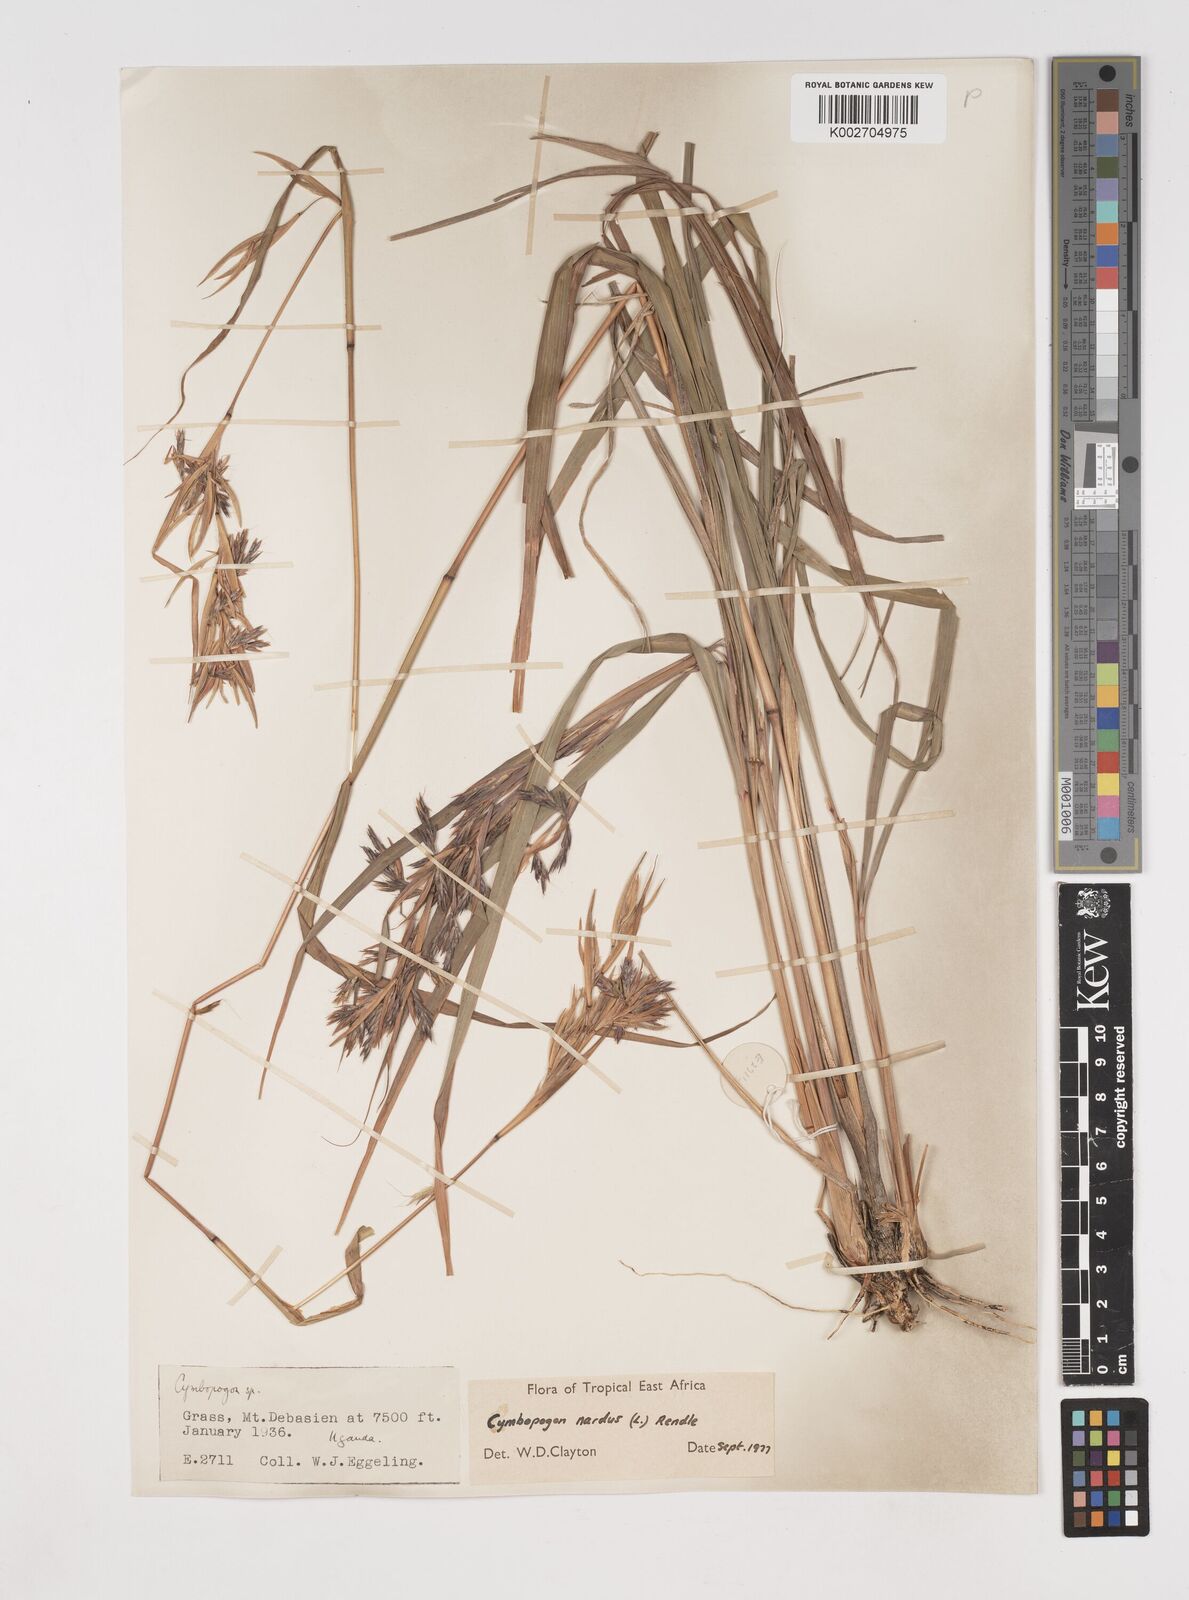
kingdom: Plantae
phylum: Tracheophyta
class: Liliopsida
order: Poales
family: Poaceae
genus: Cymbopogon
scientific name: Cymbopogon nardus
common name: Giant turpentine grass
